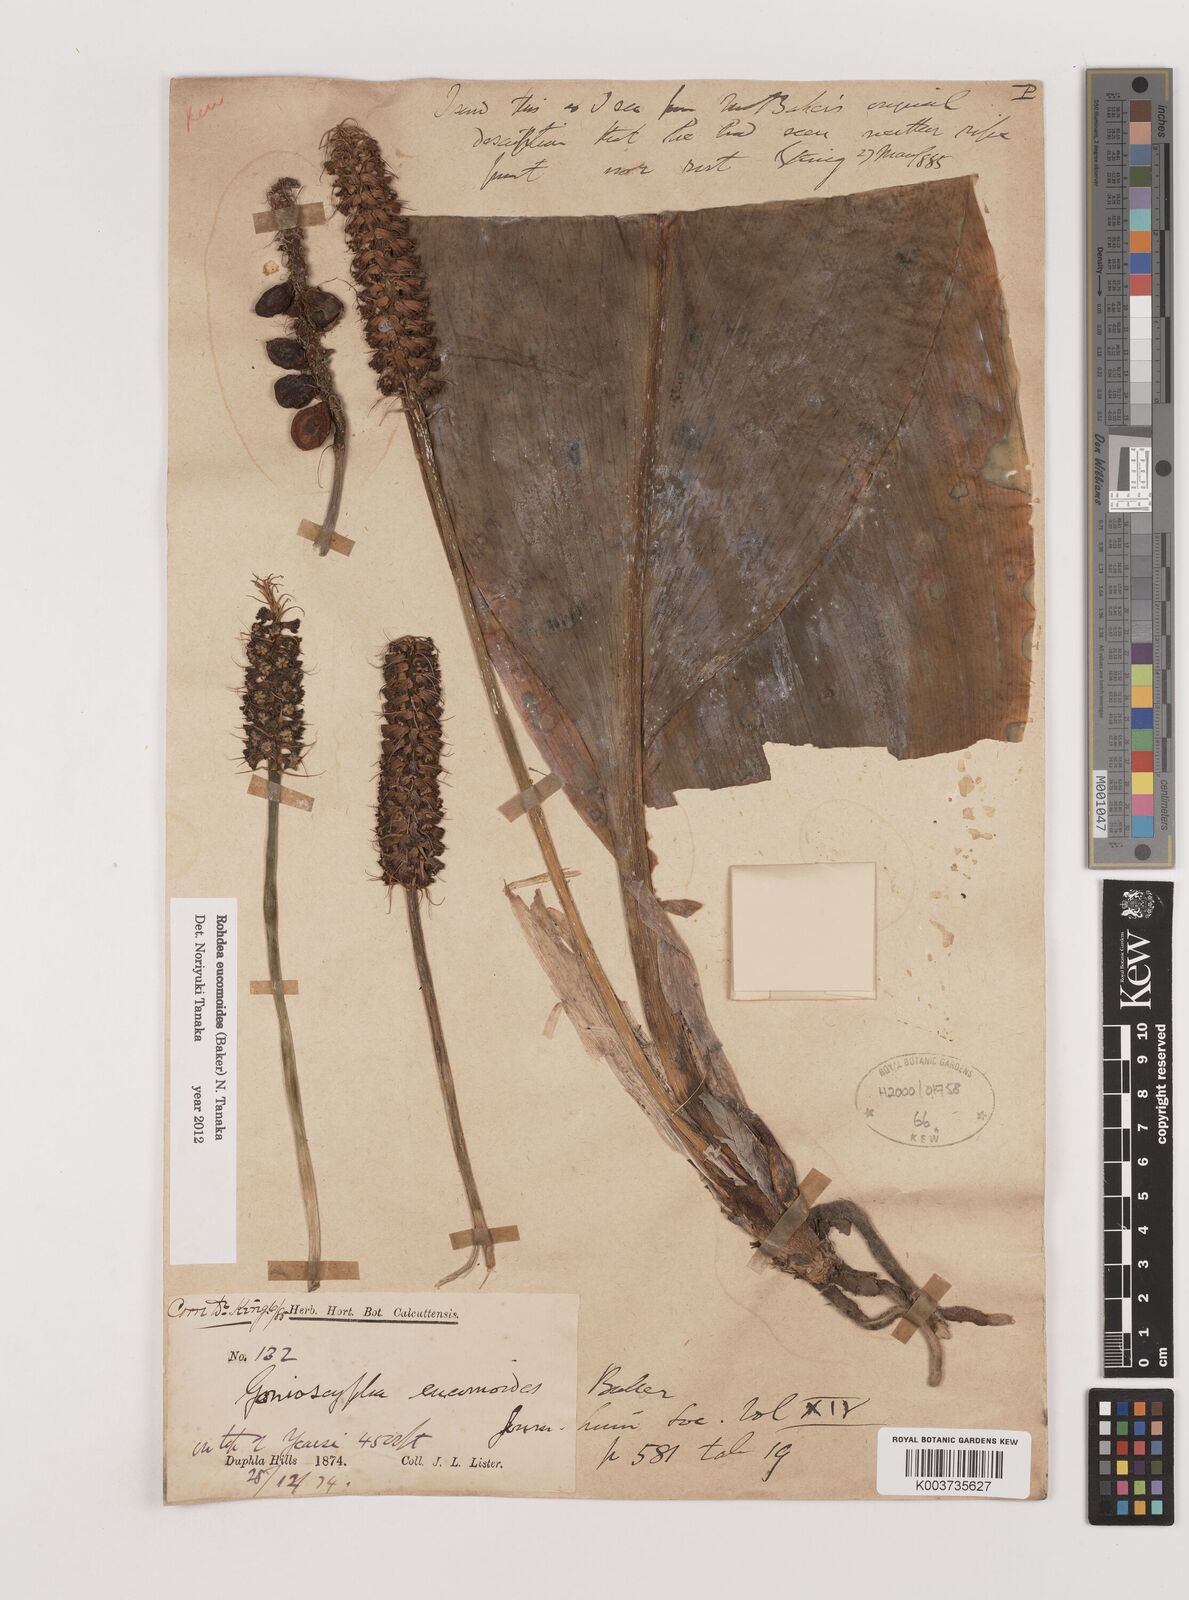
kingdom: Plantae
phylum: Tracheophyta
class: Liliopsida
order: Asparagales
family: Asparagaceae
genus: Rohdea
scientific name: Rohdea eucomoides
